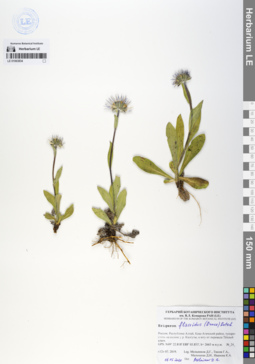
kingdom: Plantae
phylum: Tracheophyta
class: Magnoliopsida
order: Asterales
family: Asteraceae
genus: Tibetiodes
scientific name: Tibetiodes flaccida
